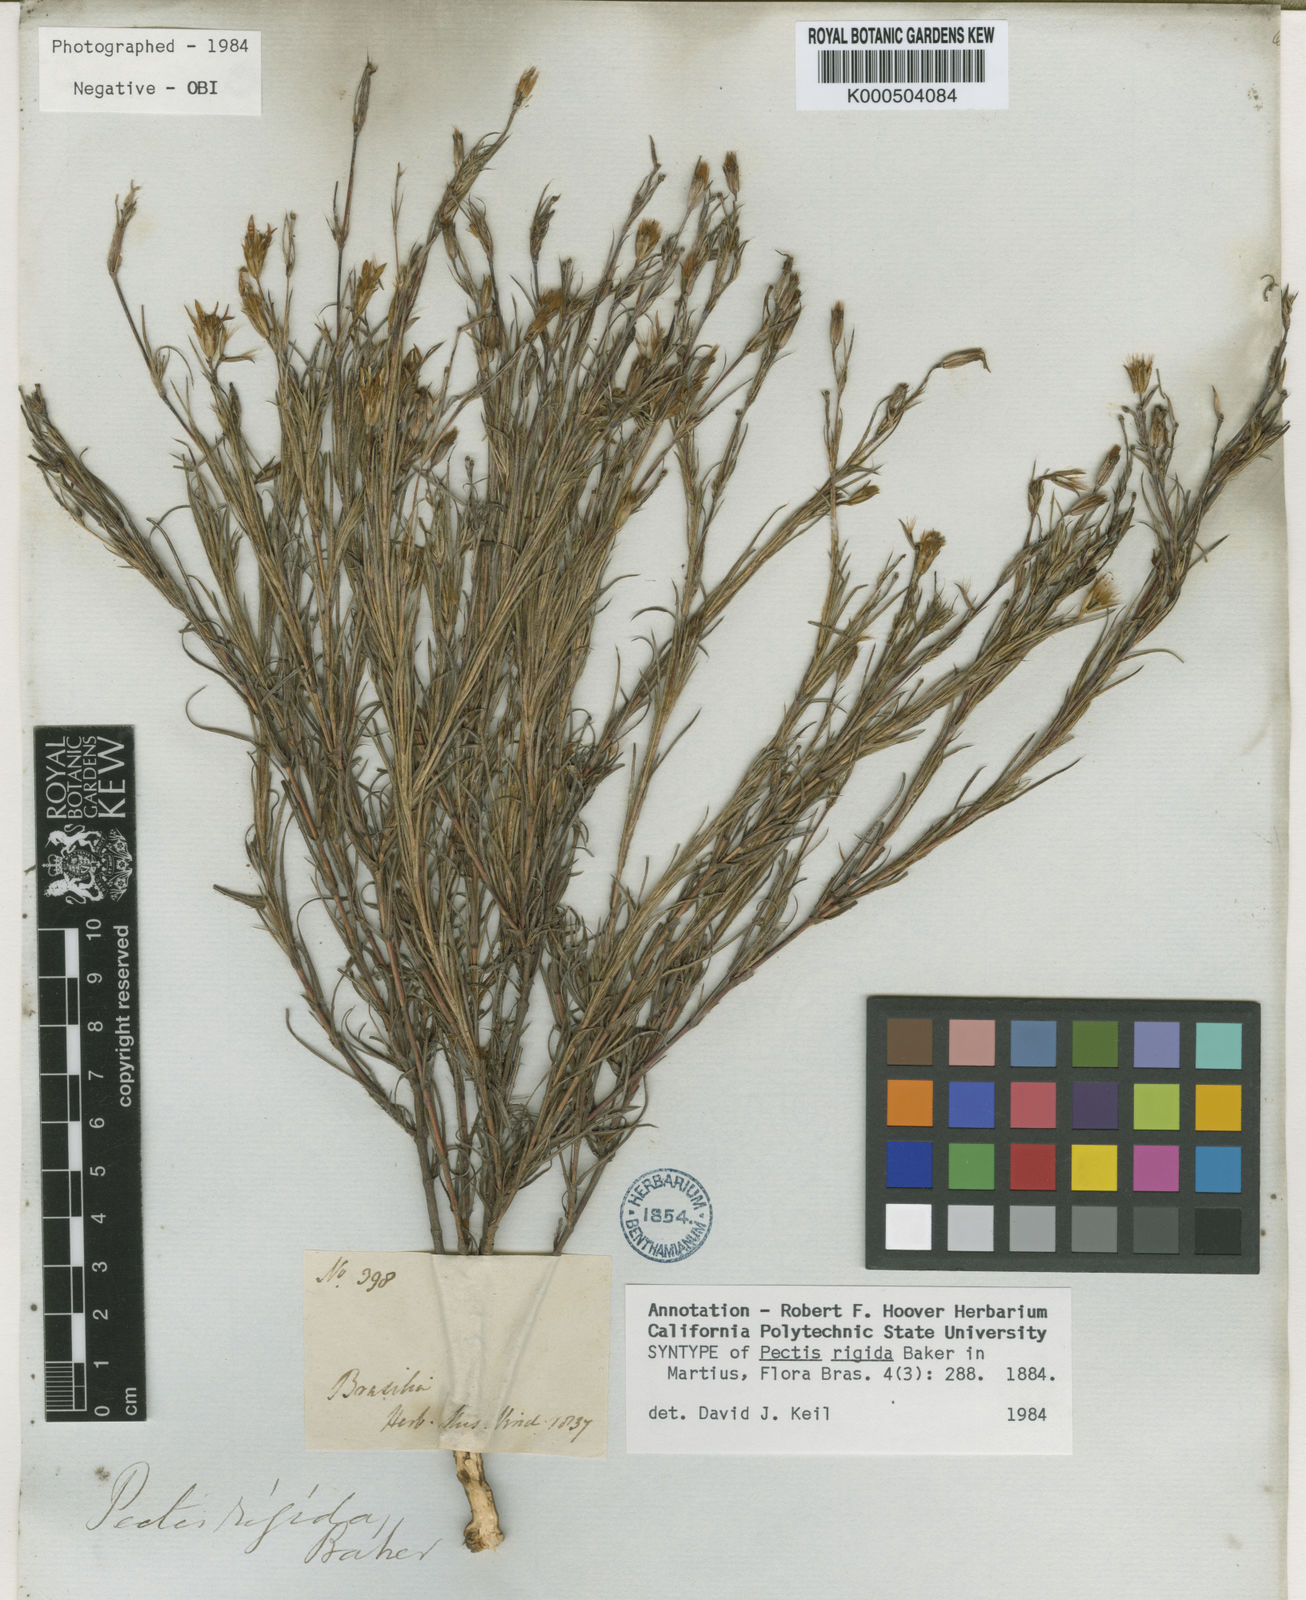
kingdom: Plantae
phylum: Tracheophyta
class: Magnoliopsida
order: Asterales
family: Asteraceae
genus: Pectis
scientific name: Pectis oligocephala
